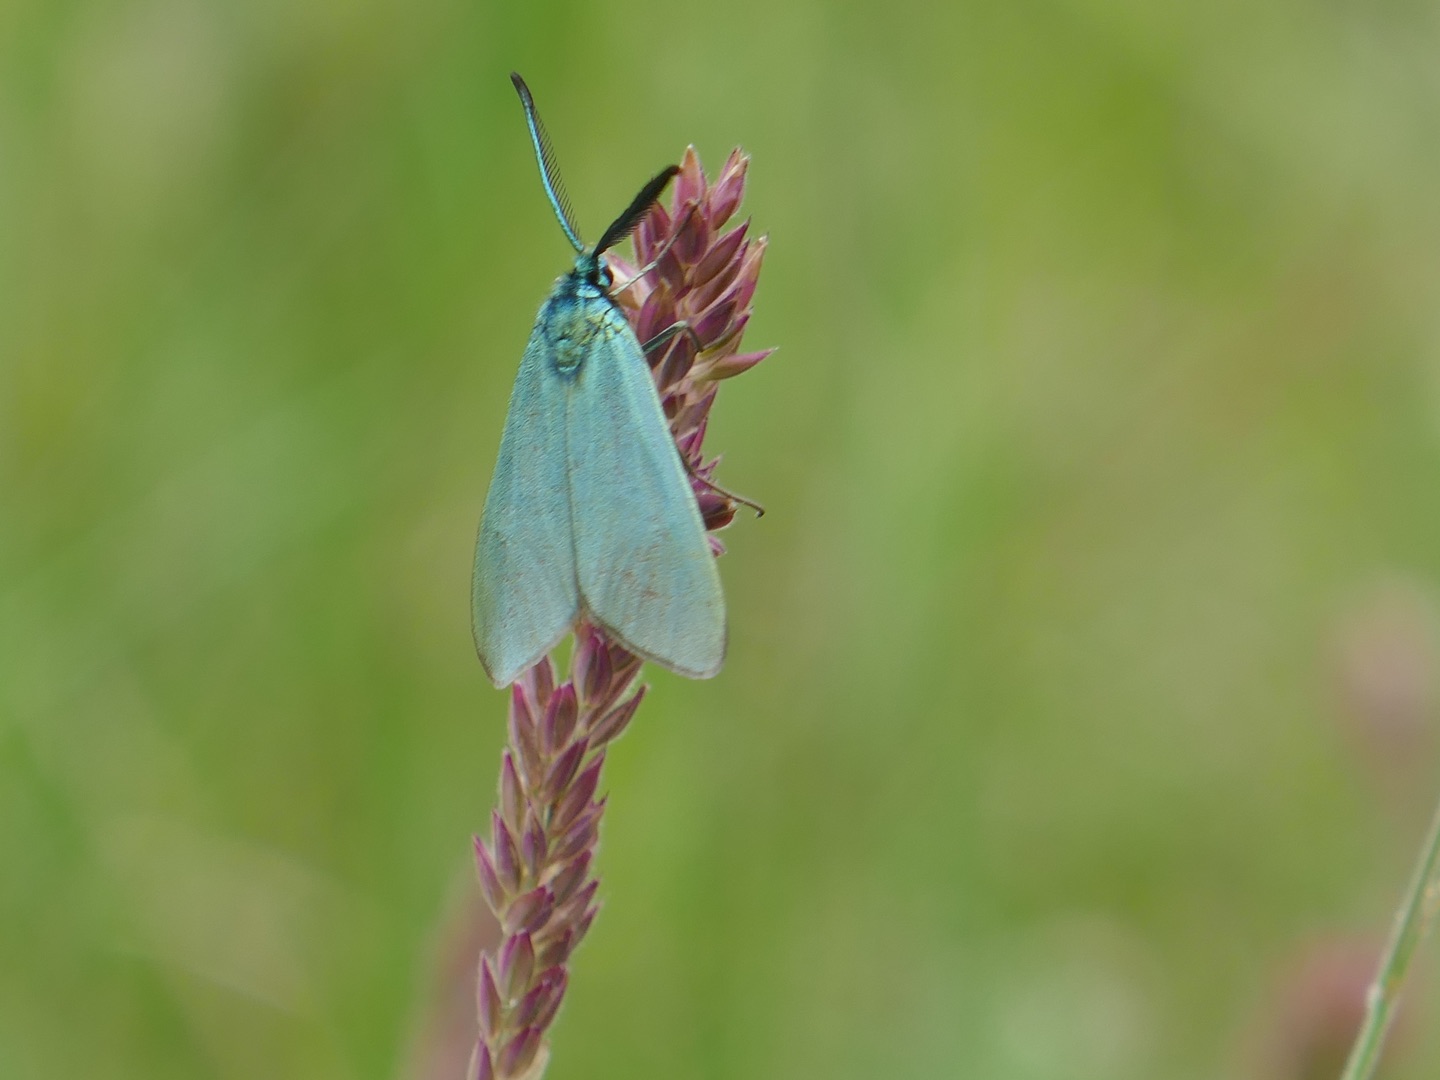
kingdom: Animalia
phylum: Arthropoda
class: Insecta
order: Lepidoptera
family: Zygaenidae
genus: Adscita
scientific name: Adscita statices
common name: Metalvinge
